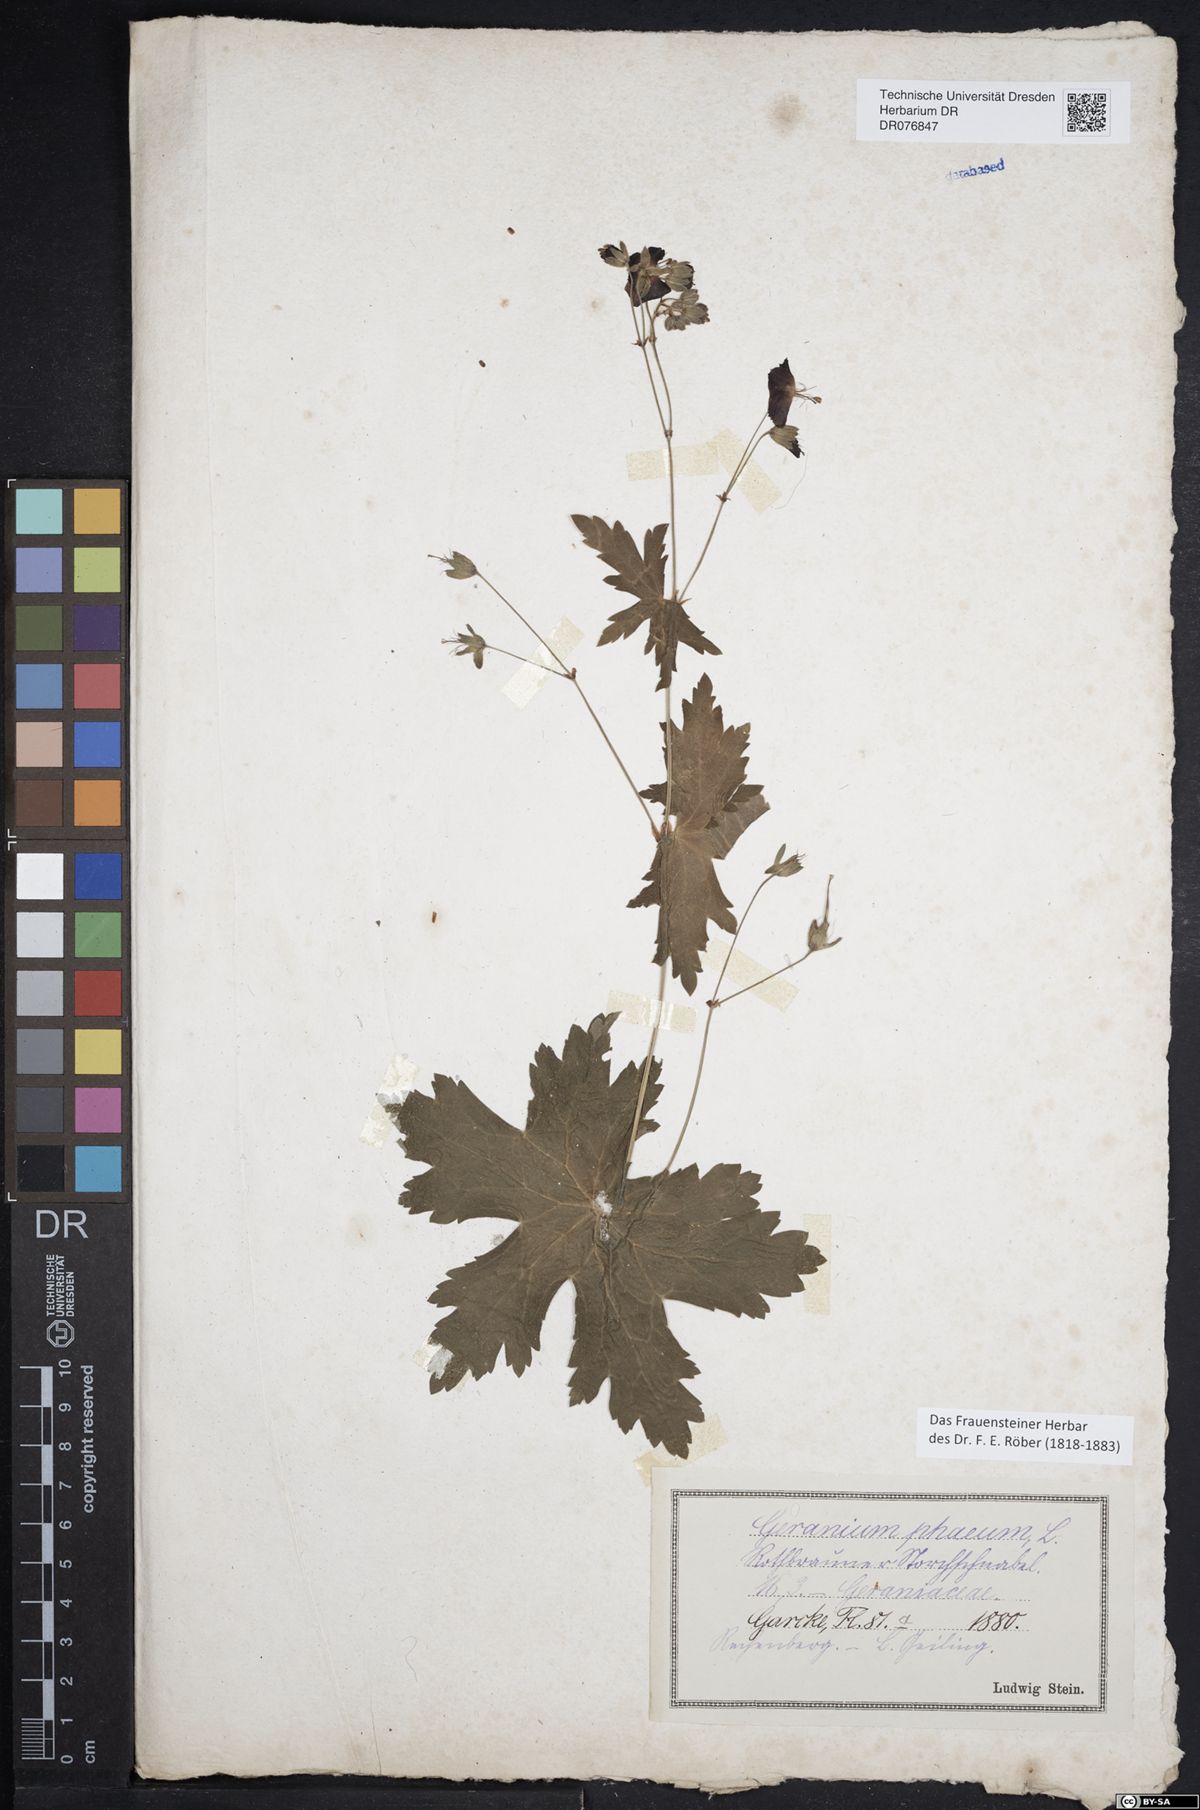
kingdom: Plantae
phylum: Tracheophyta
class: Magnoliopsida
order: Geraniales
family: Geraniaceae
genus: Geranium
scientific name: Geranium phaeum
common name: Dusky crane's-bill
